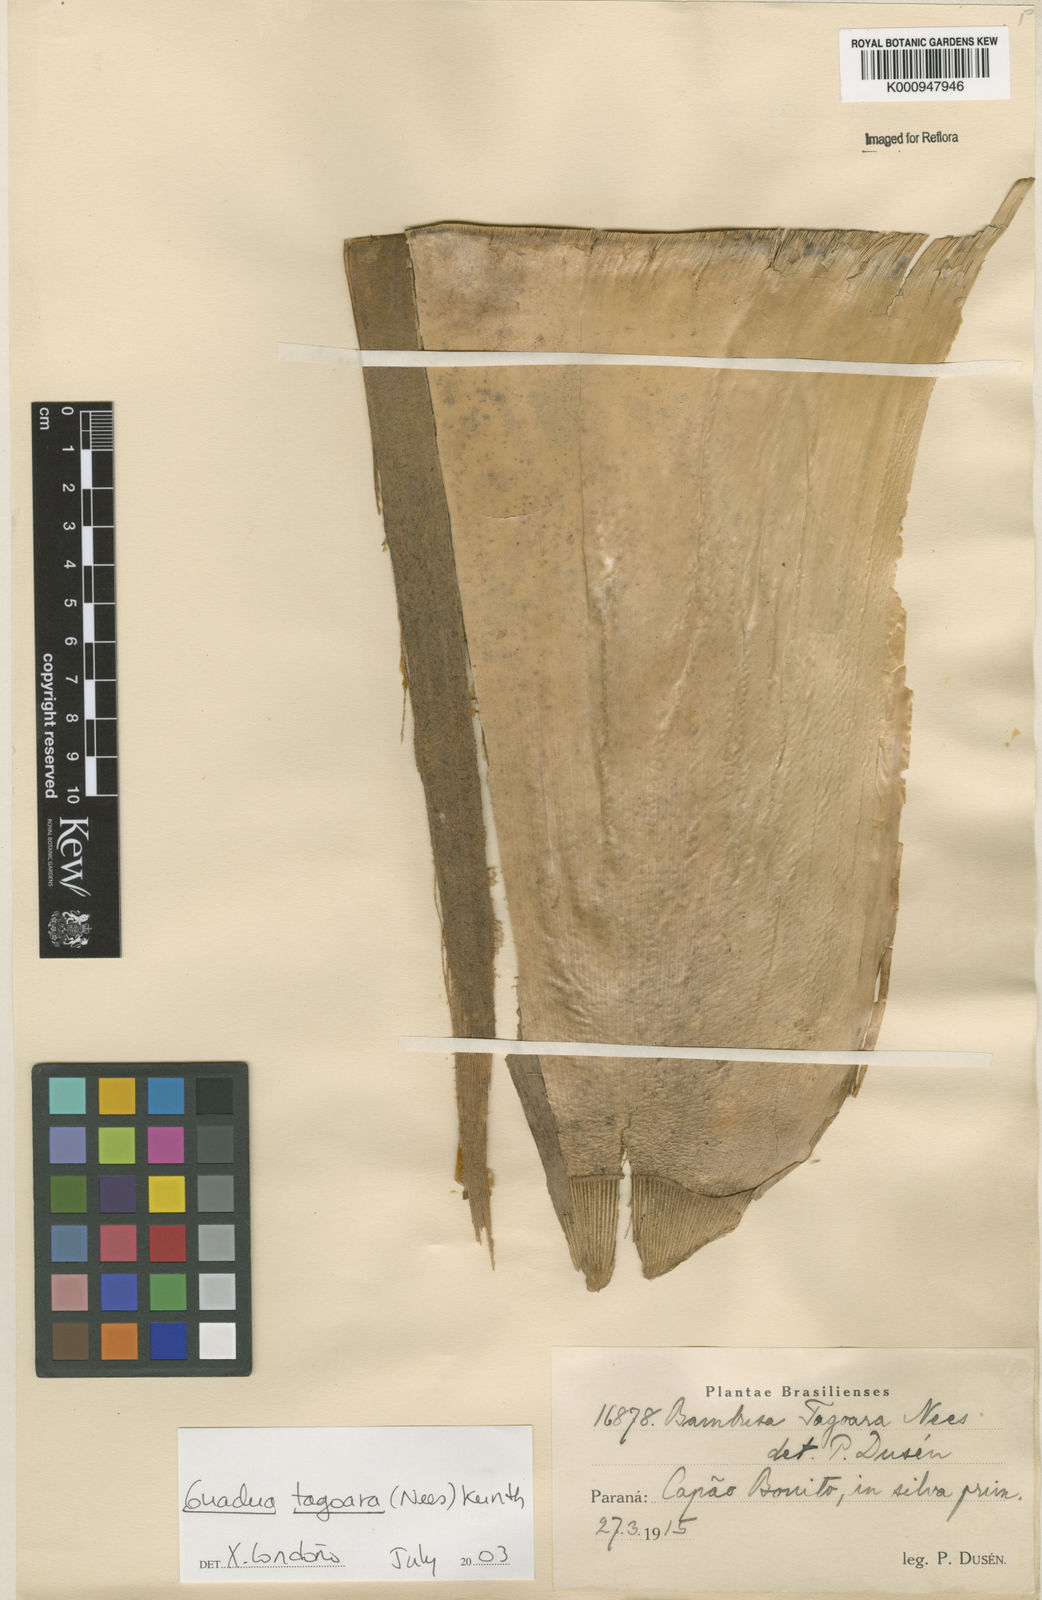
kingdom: Plantae
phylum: Tracheophyta
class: Liliopsida
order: Poales
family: Poaceae
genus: Guadua
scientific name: Guadua tagoara
